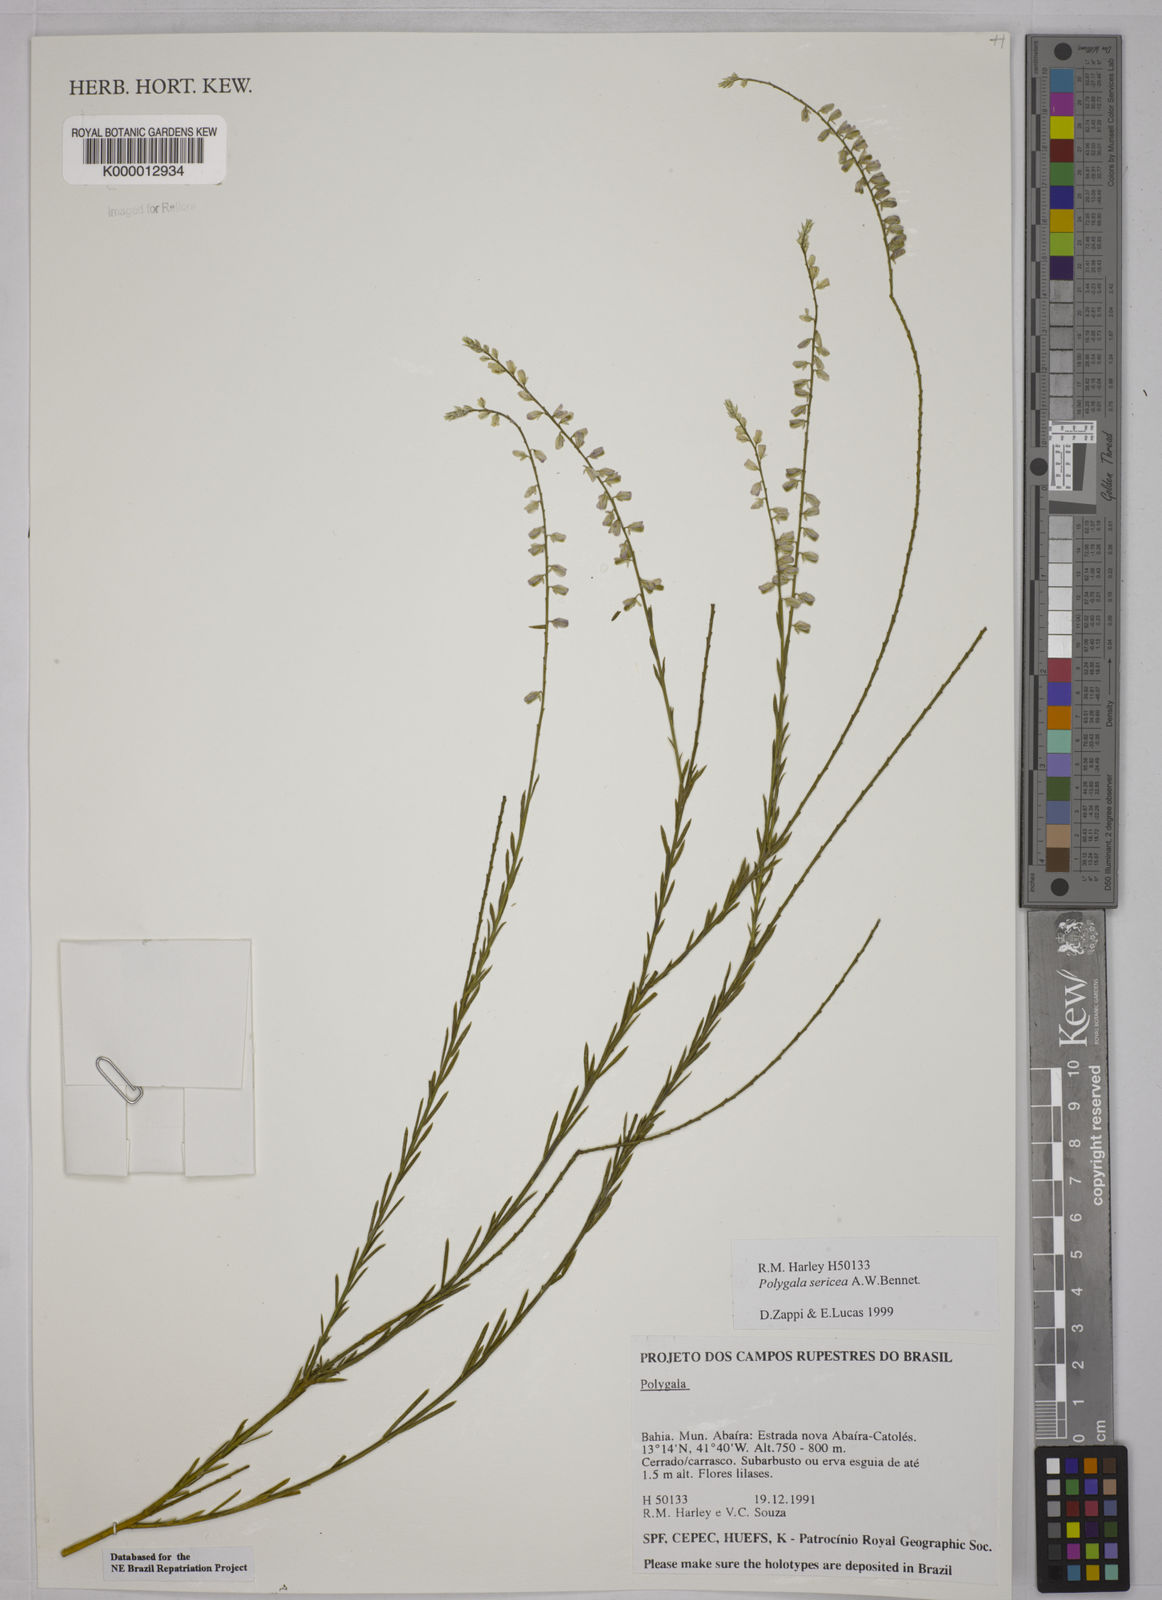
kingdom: Plantae
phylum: Tracheophyta
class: Magnoliopsida
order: Fabales
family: Polygalaceae
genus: Polygala
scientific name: Polygala sericea
